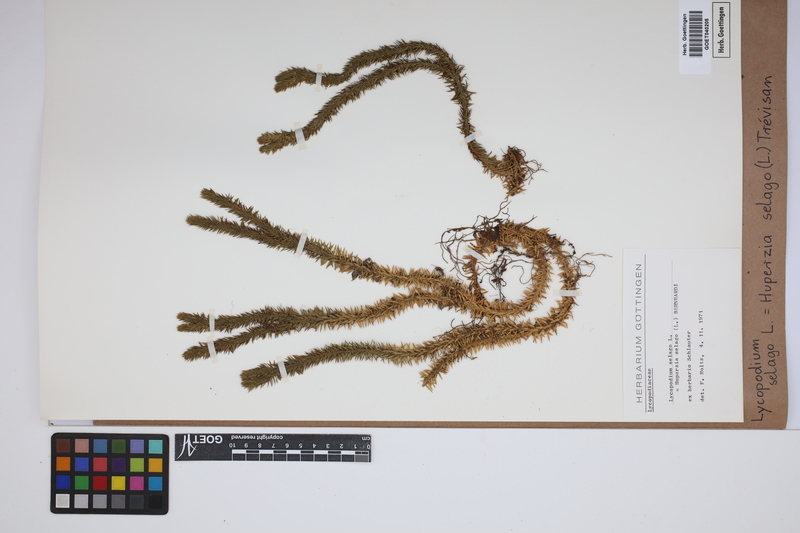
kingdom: Plantae
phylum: Tracheophyta
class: Lycopodiopsida
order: Lycopodiales
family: Lycopodiaceae
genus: Huperzia
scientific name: Huperzia selago
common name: Northern firmoss
